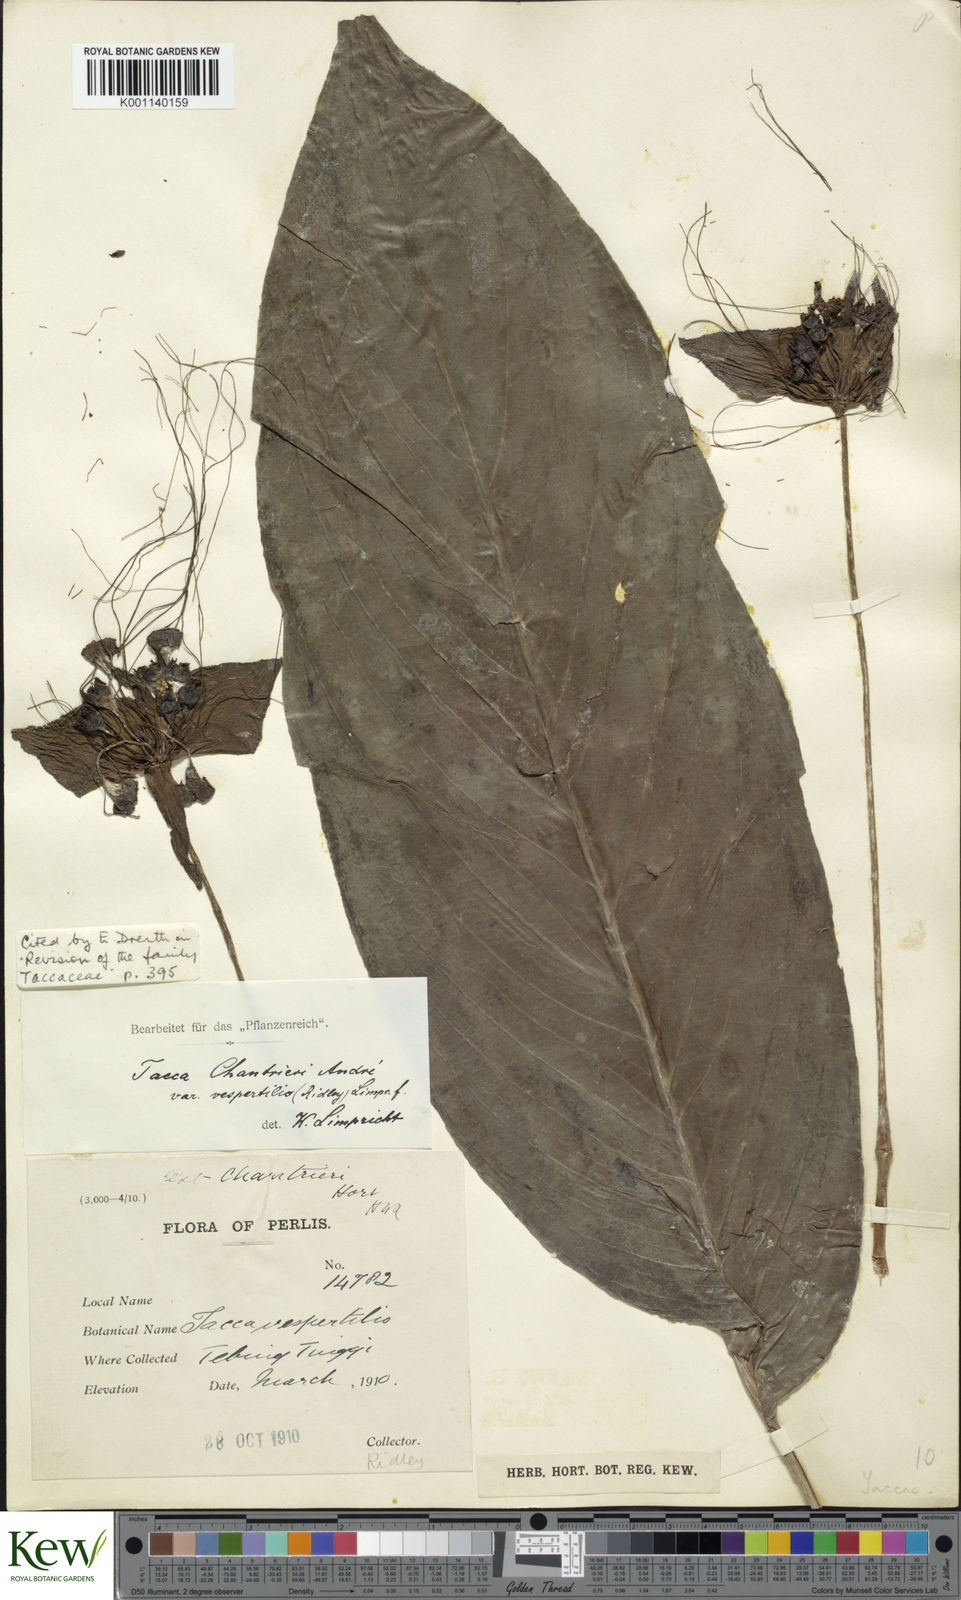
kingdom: Plantae
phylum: Tracheophyta
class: Liliopsida
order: Dioscoreales
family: Dioscoreaceae
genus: Tacca
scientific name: Tacca
